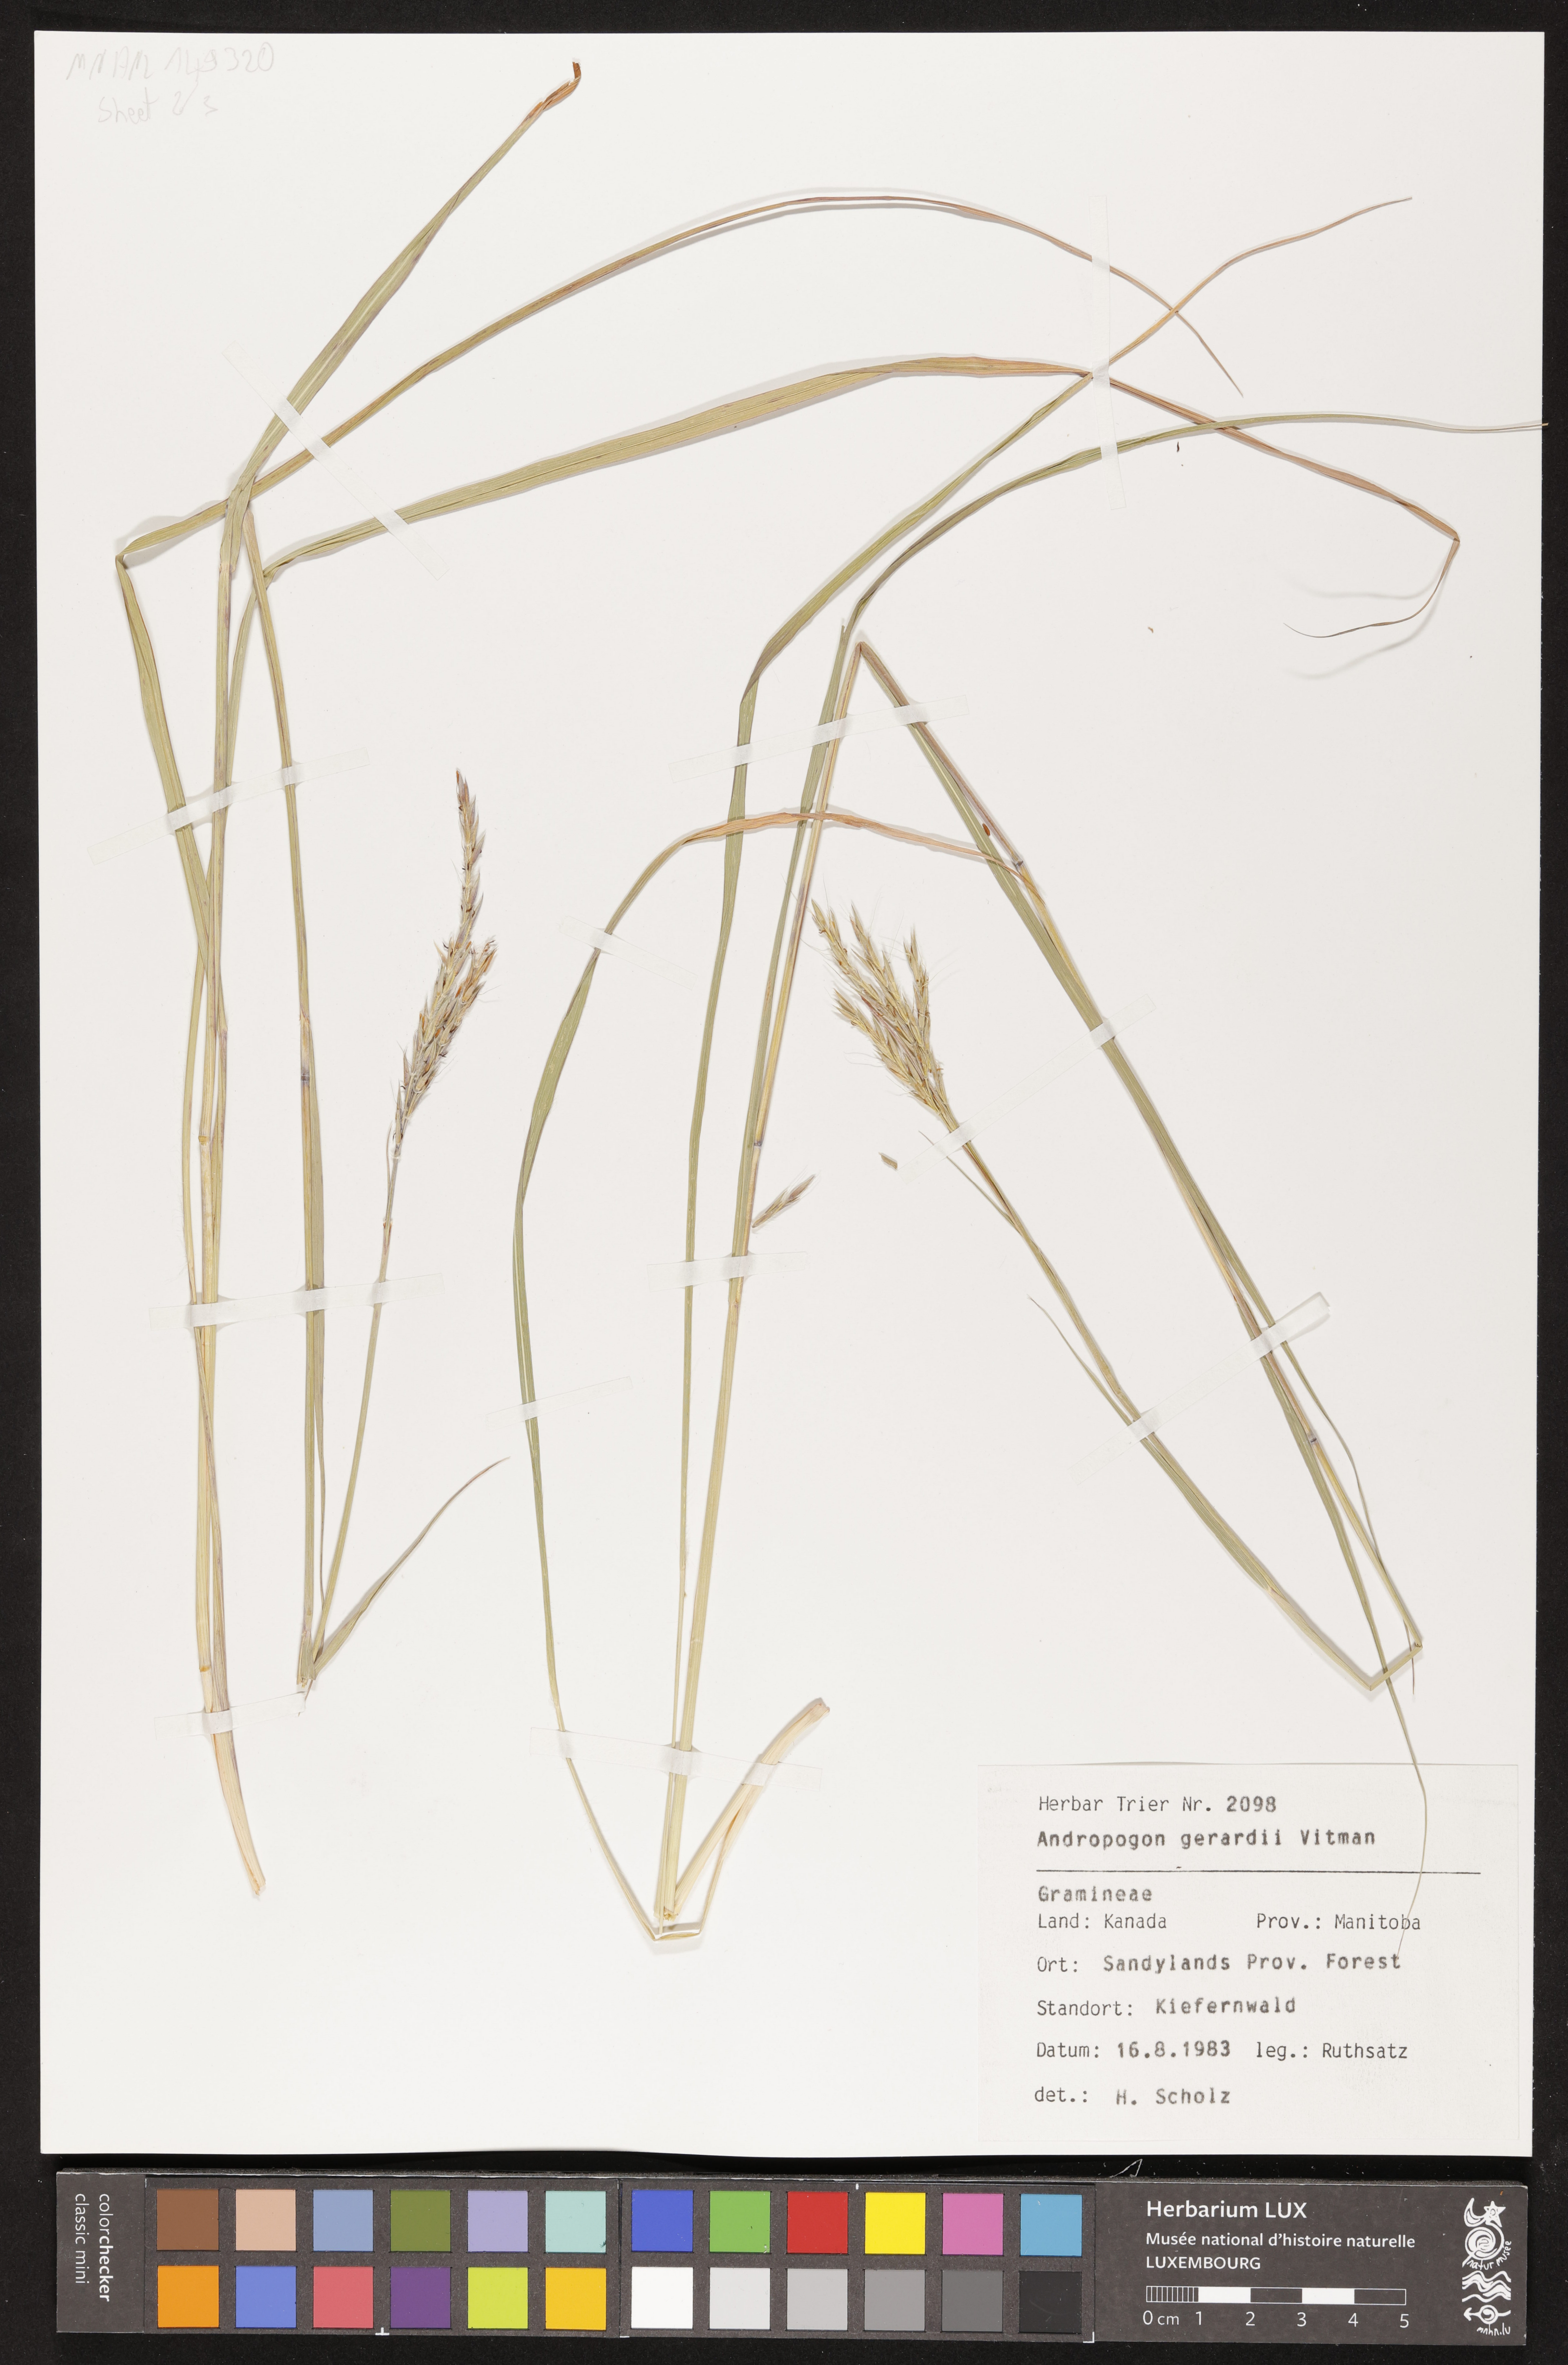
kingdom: Plantae
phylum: Tracheophyta
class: Liliopsida
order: Poales
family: Poaceae
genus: Andropogon
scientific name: Andropogon gerardi
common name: Big bluestem
